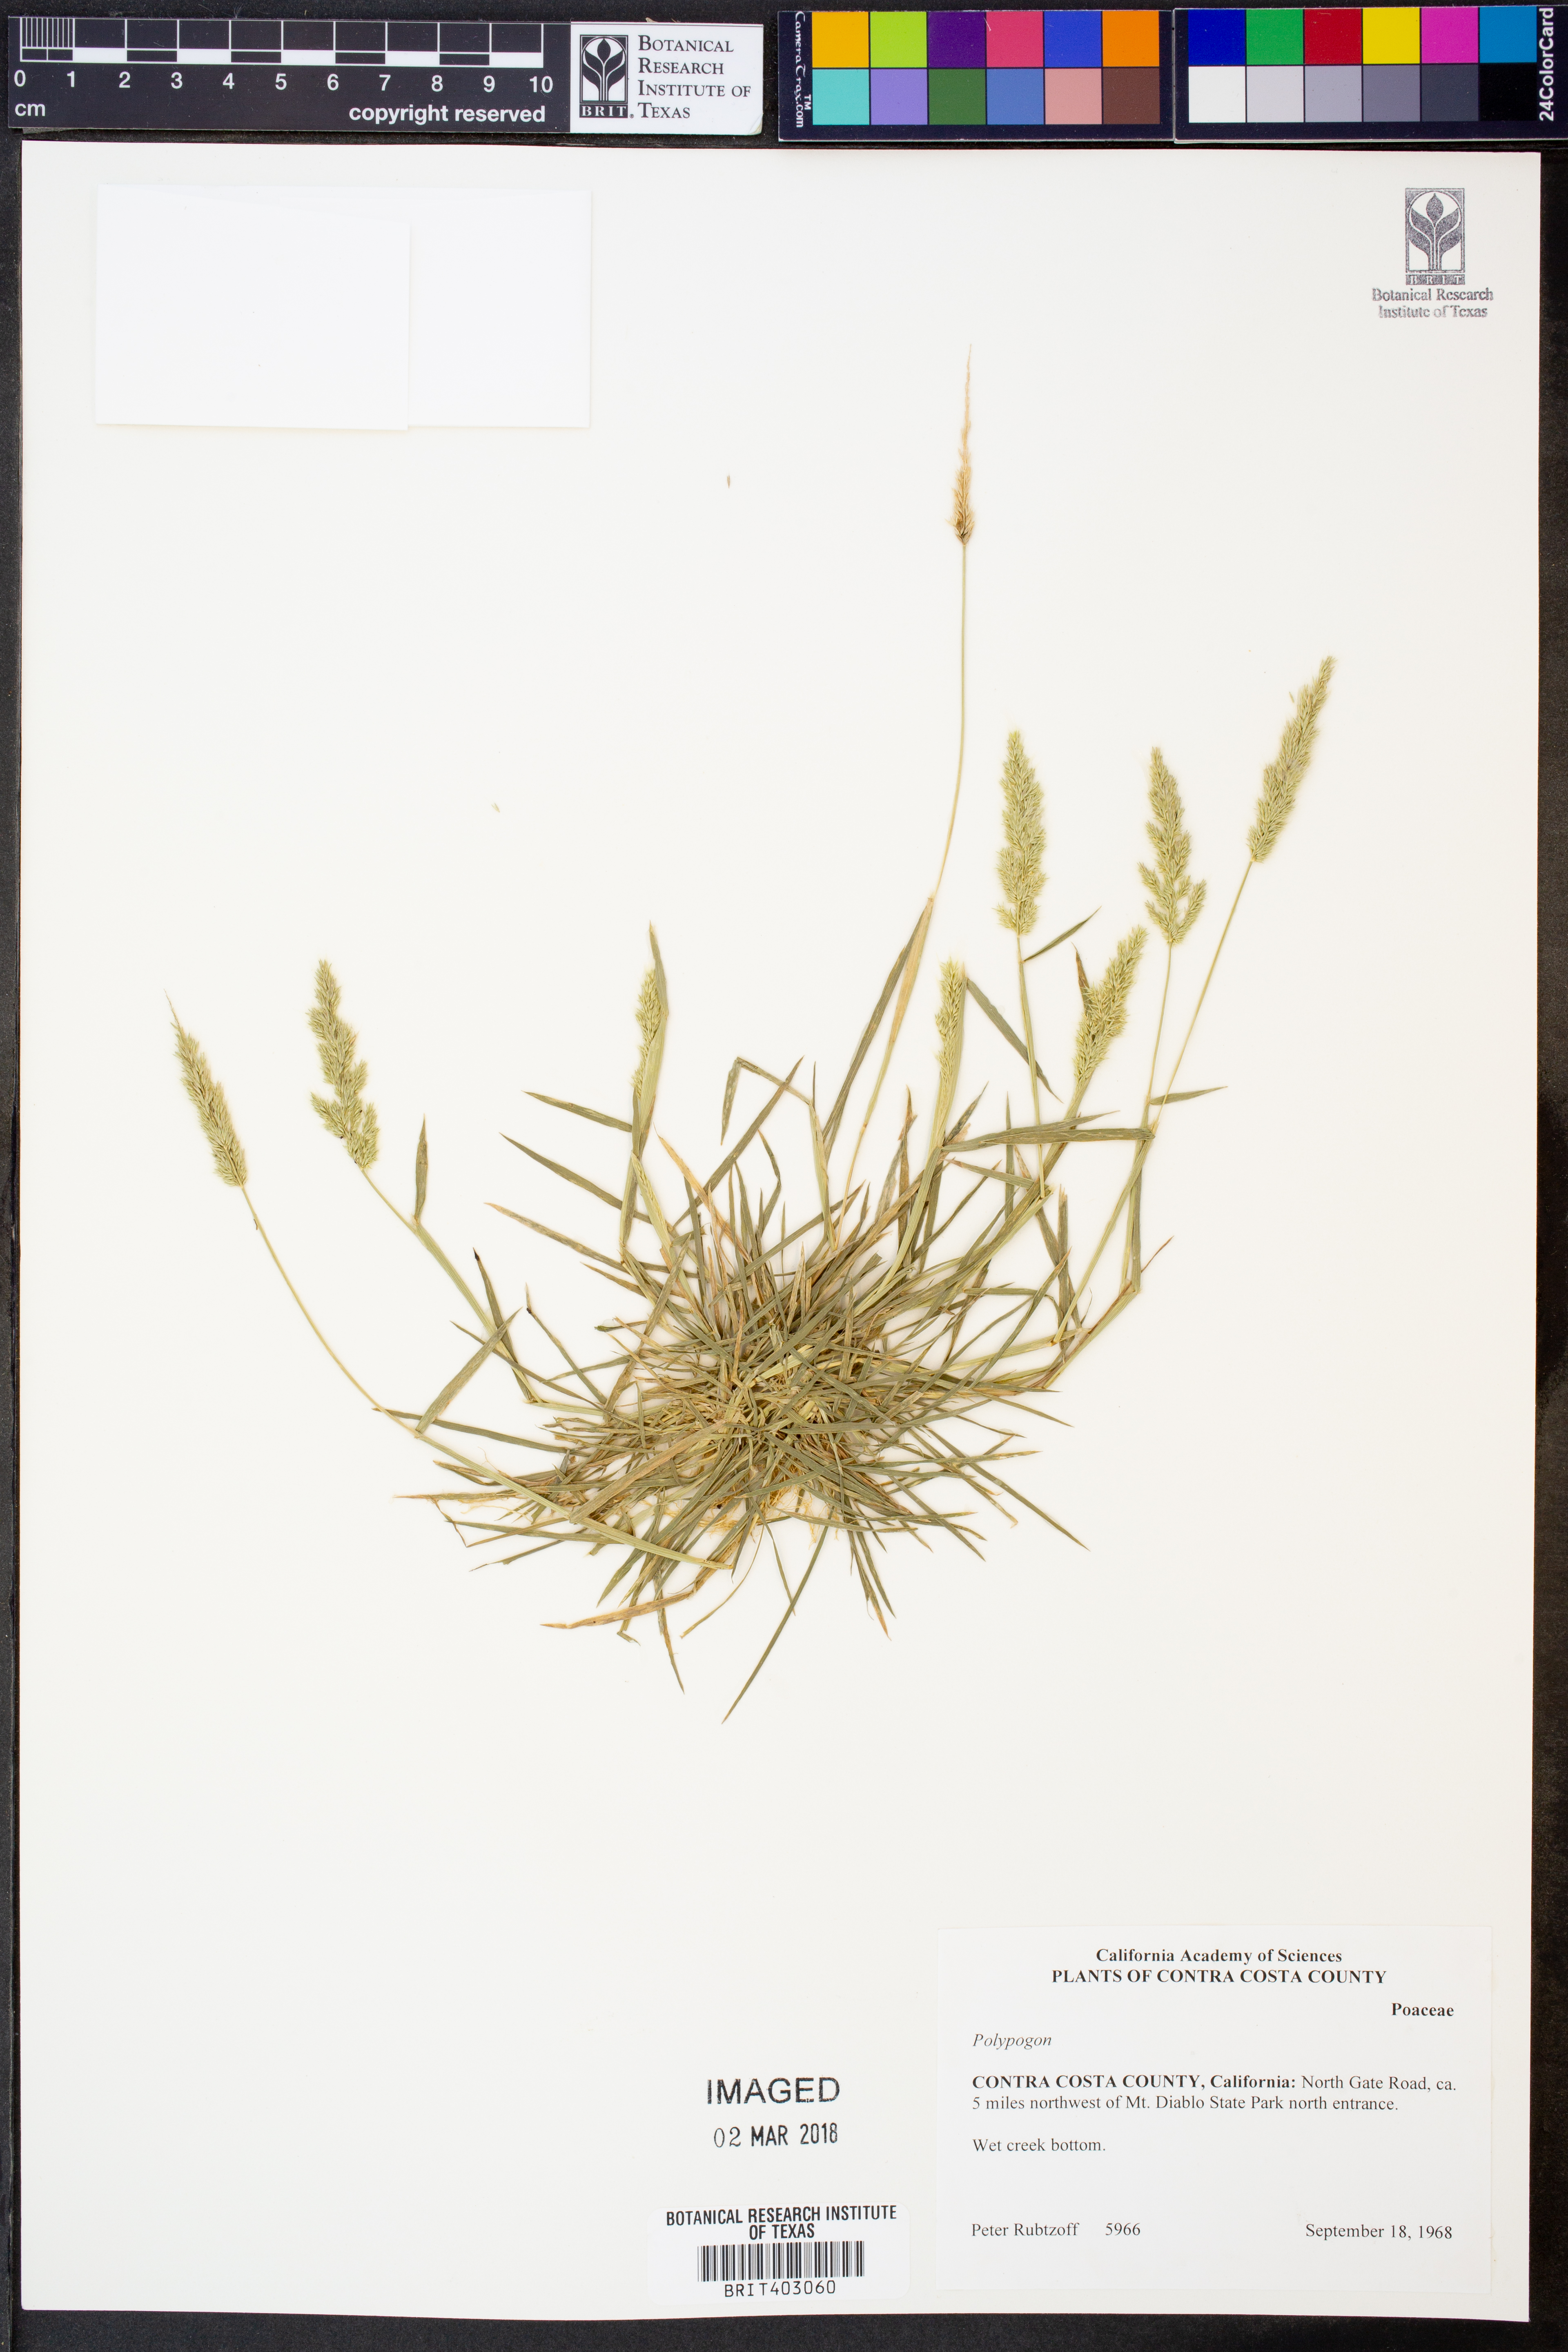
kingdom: Plantae
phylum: Tracheophyta
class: Liliopsida
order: Poales
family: Poaceae
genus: Polypogon
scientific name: Polypogon
